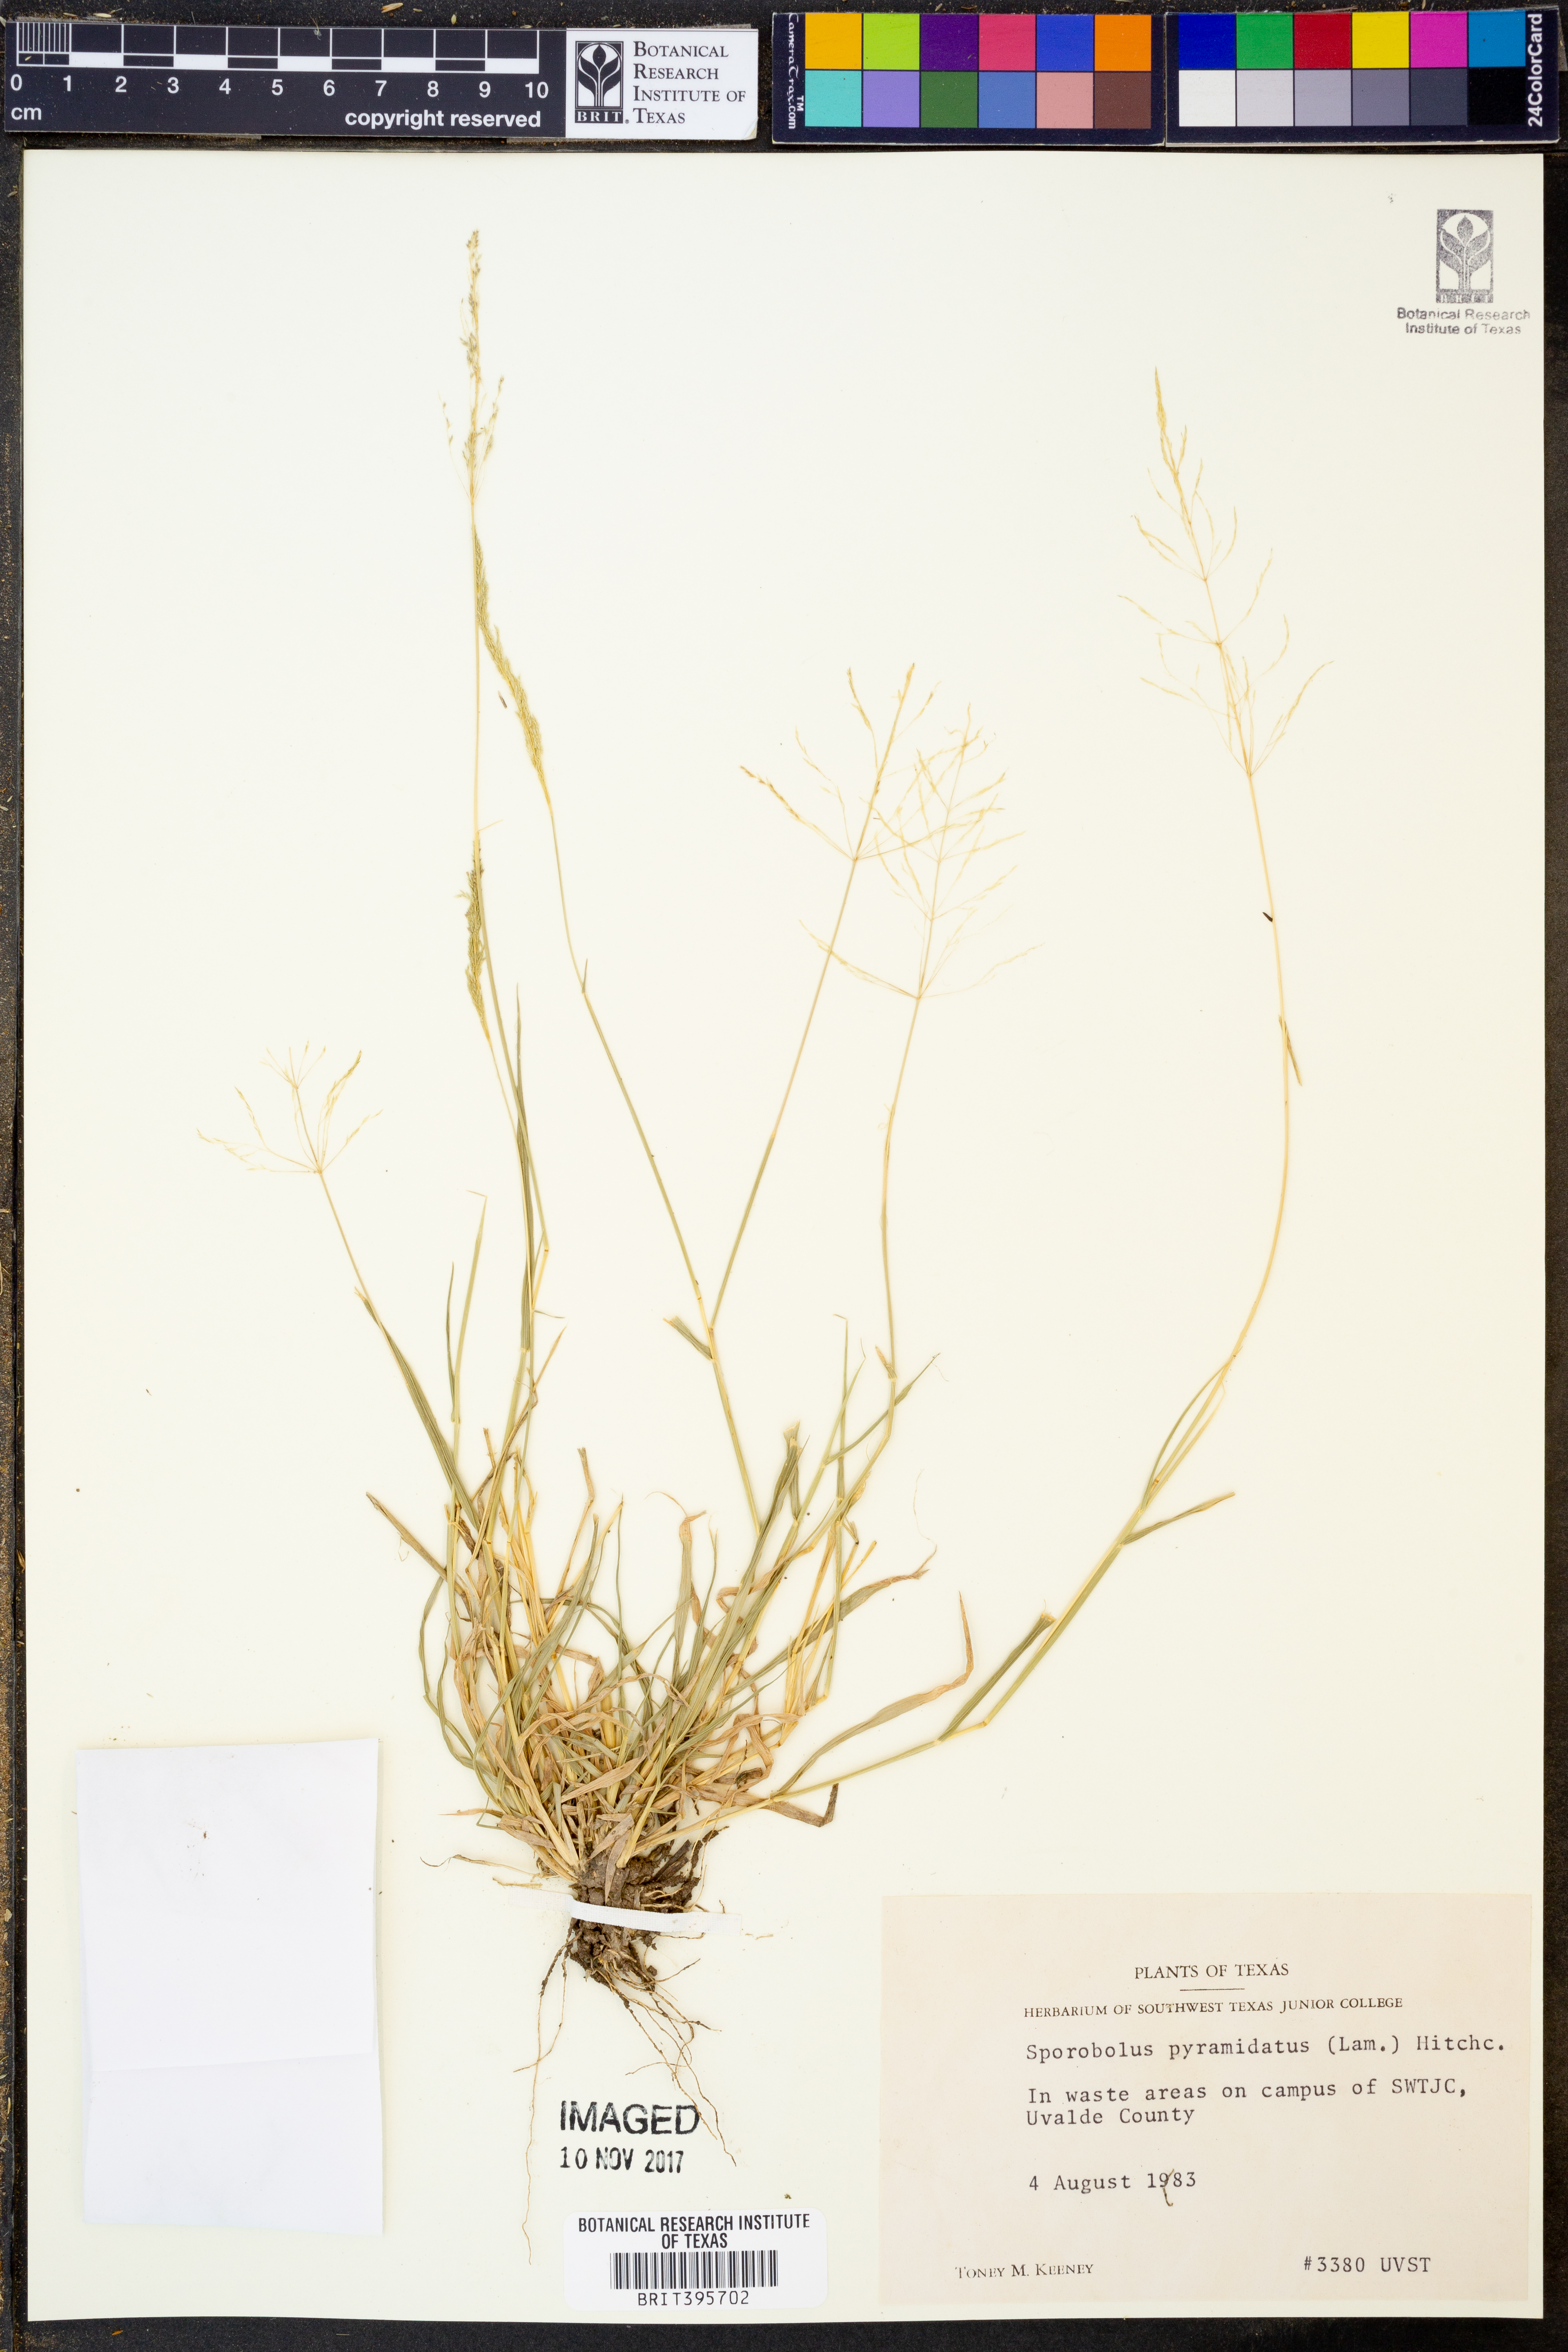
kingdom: Plantae
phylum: Tracheophyta
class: Liliopsida
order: Poales
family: Poaceae
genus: Sporobolus
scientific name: Sporobolus pyramidatus
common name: Whorled dropseed
